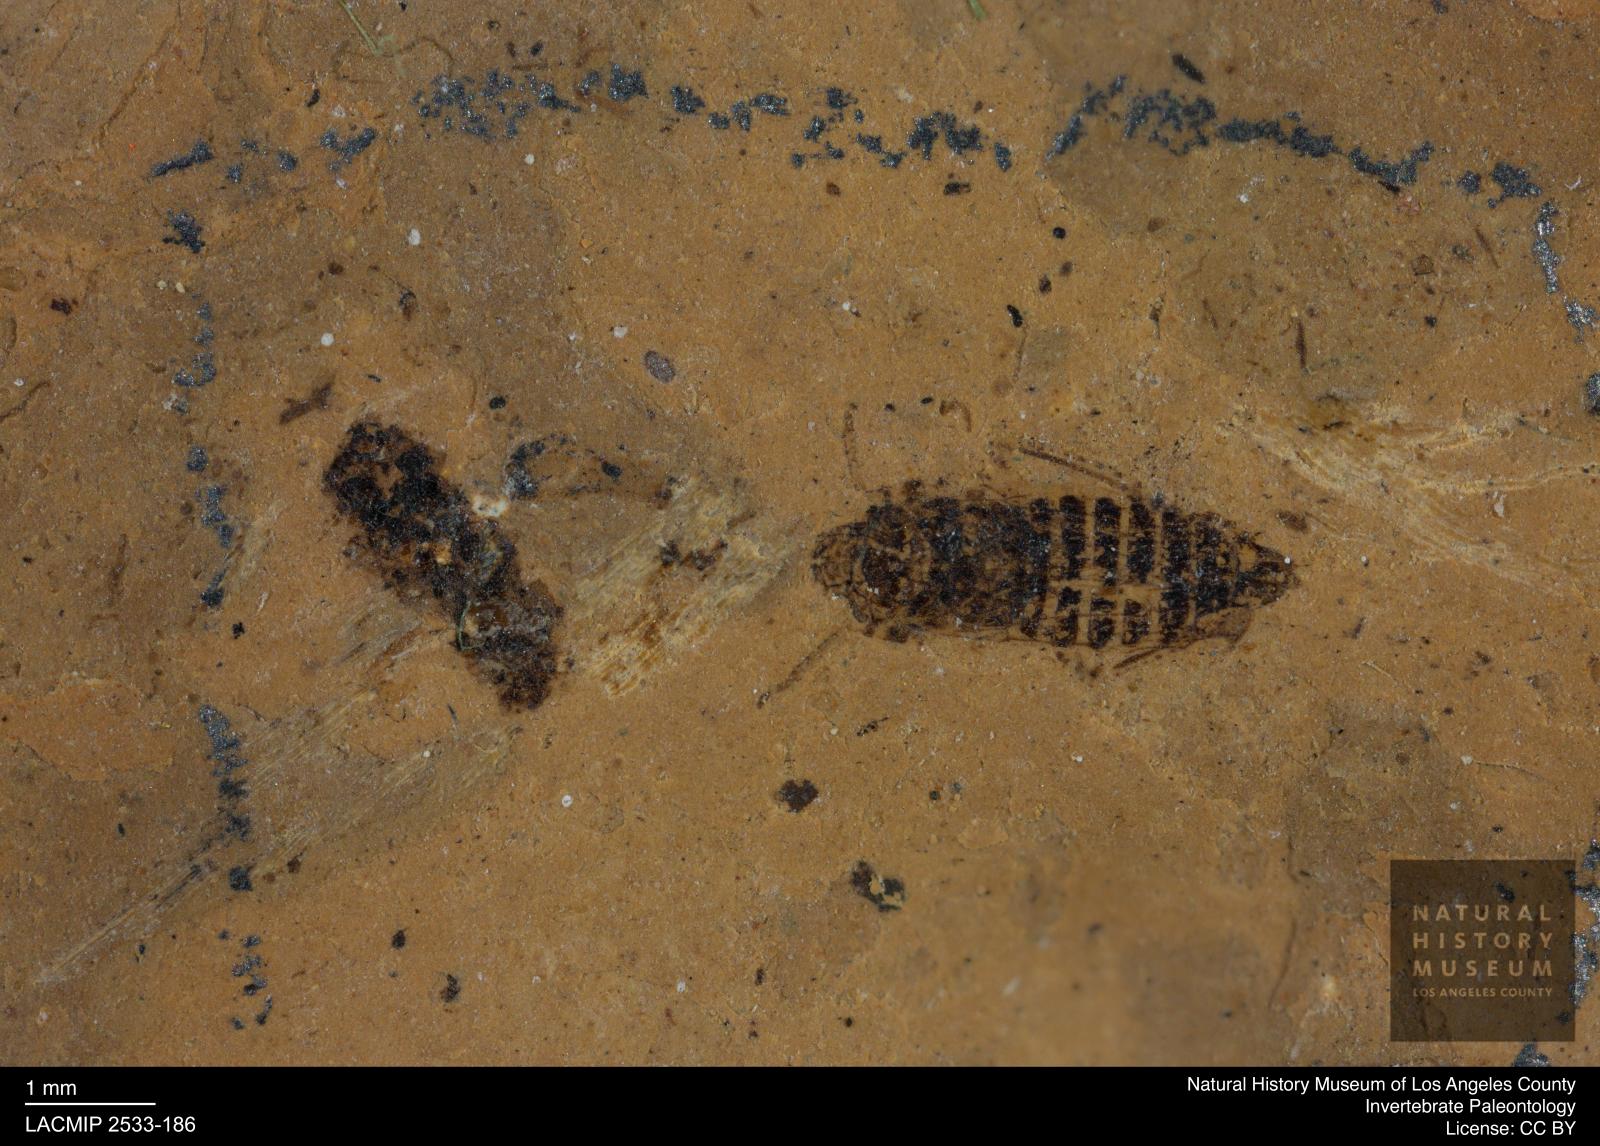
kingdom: Animalia
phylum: Arthropoda
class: Insecta
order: Hemiptera
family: Cicadellidae
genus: Thamnotettix
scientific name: Thamnotettix ampliventris
